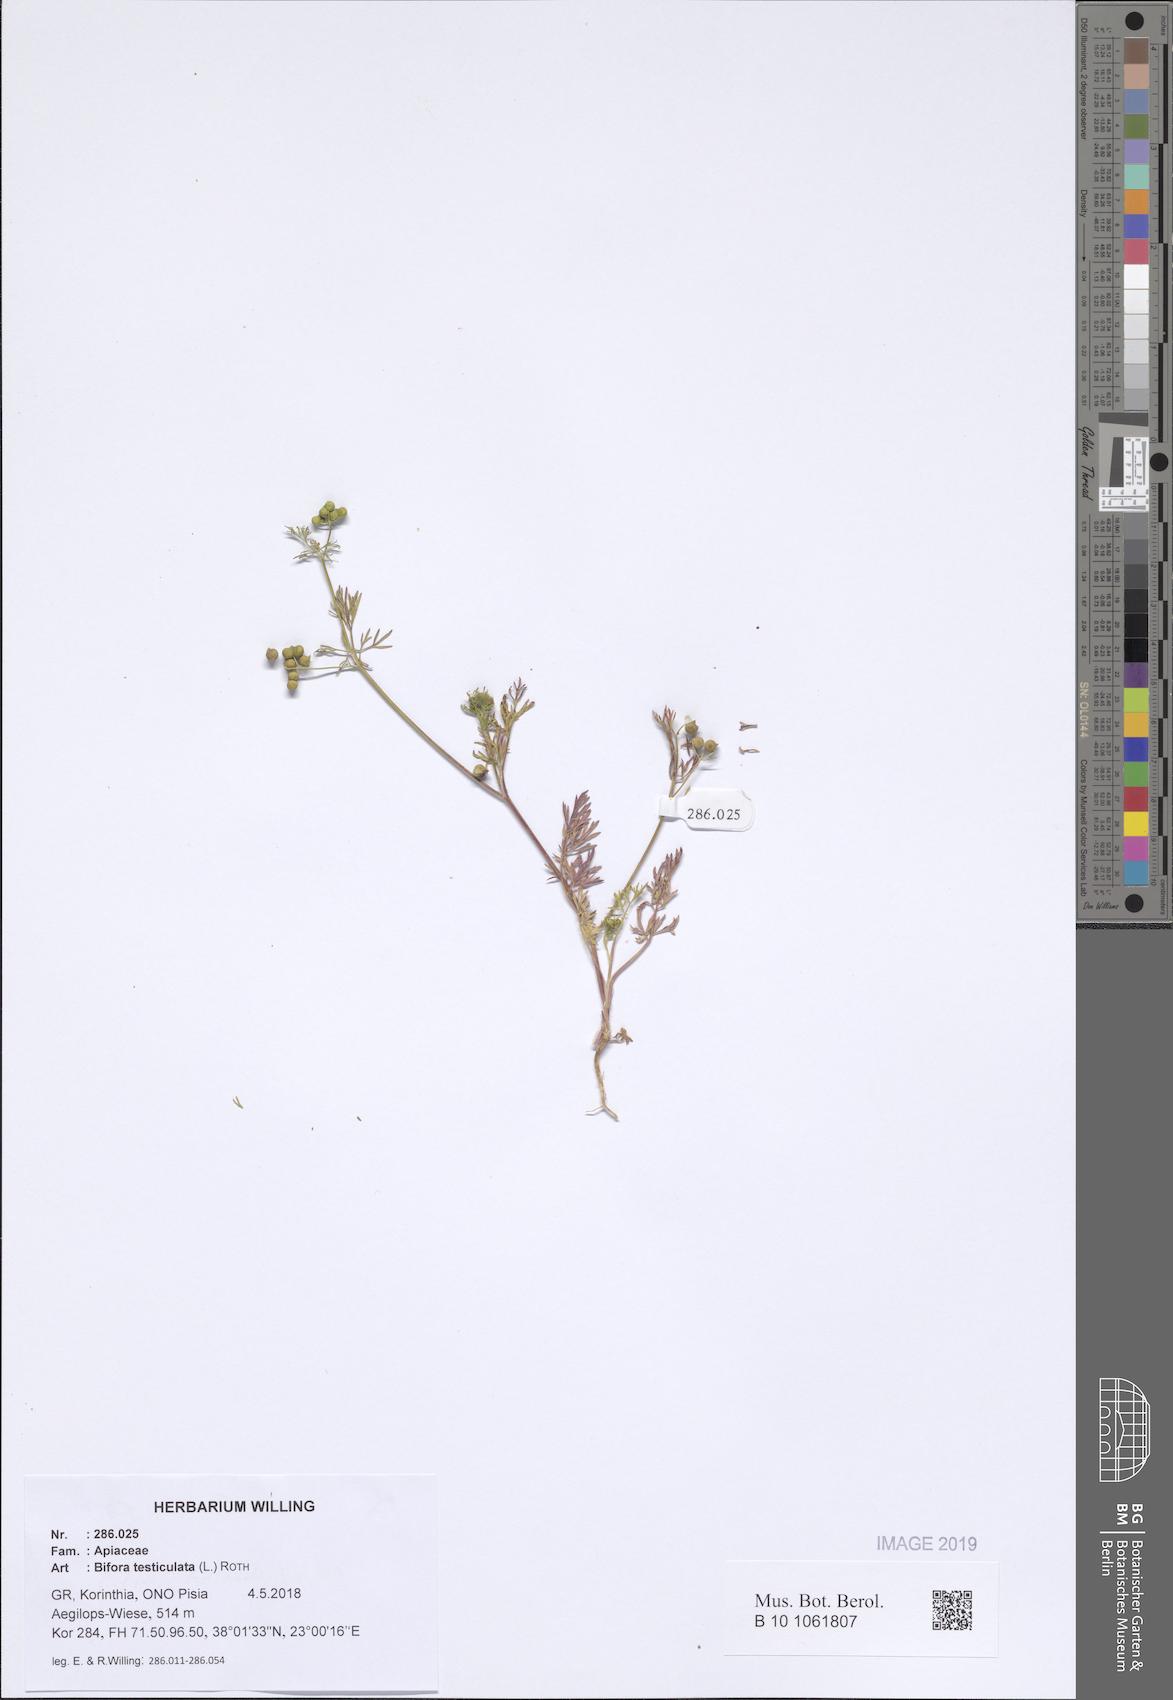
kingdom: Plantae
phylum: Tracheophyta
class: Magnoliopsida
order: Apiales
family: Apiaceae
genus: Bifora
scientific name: Bifora testiculata
